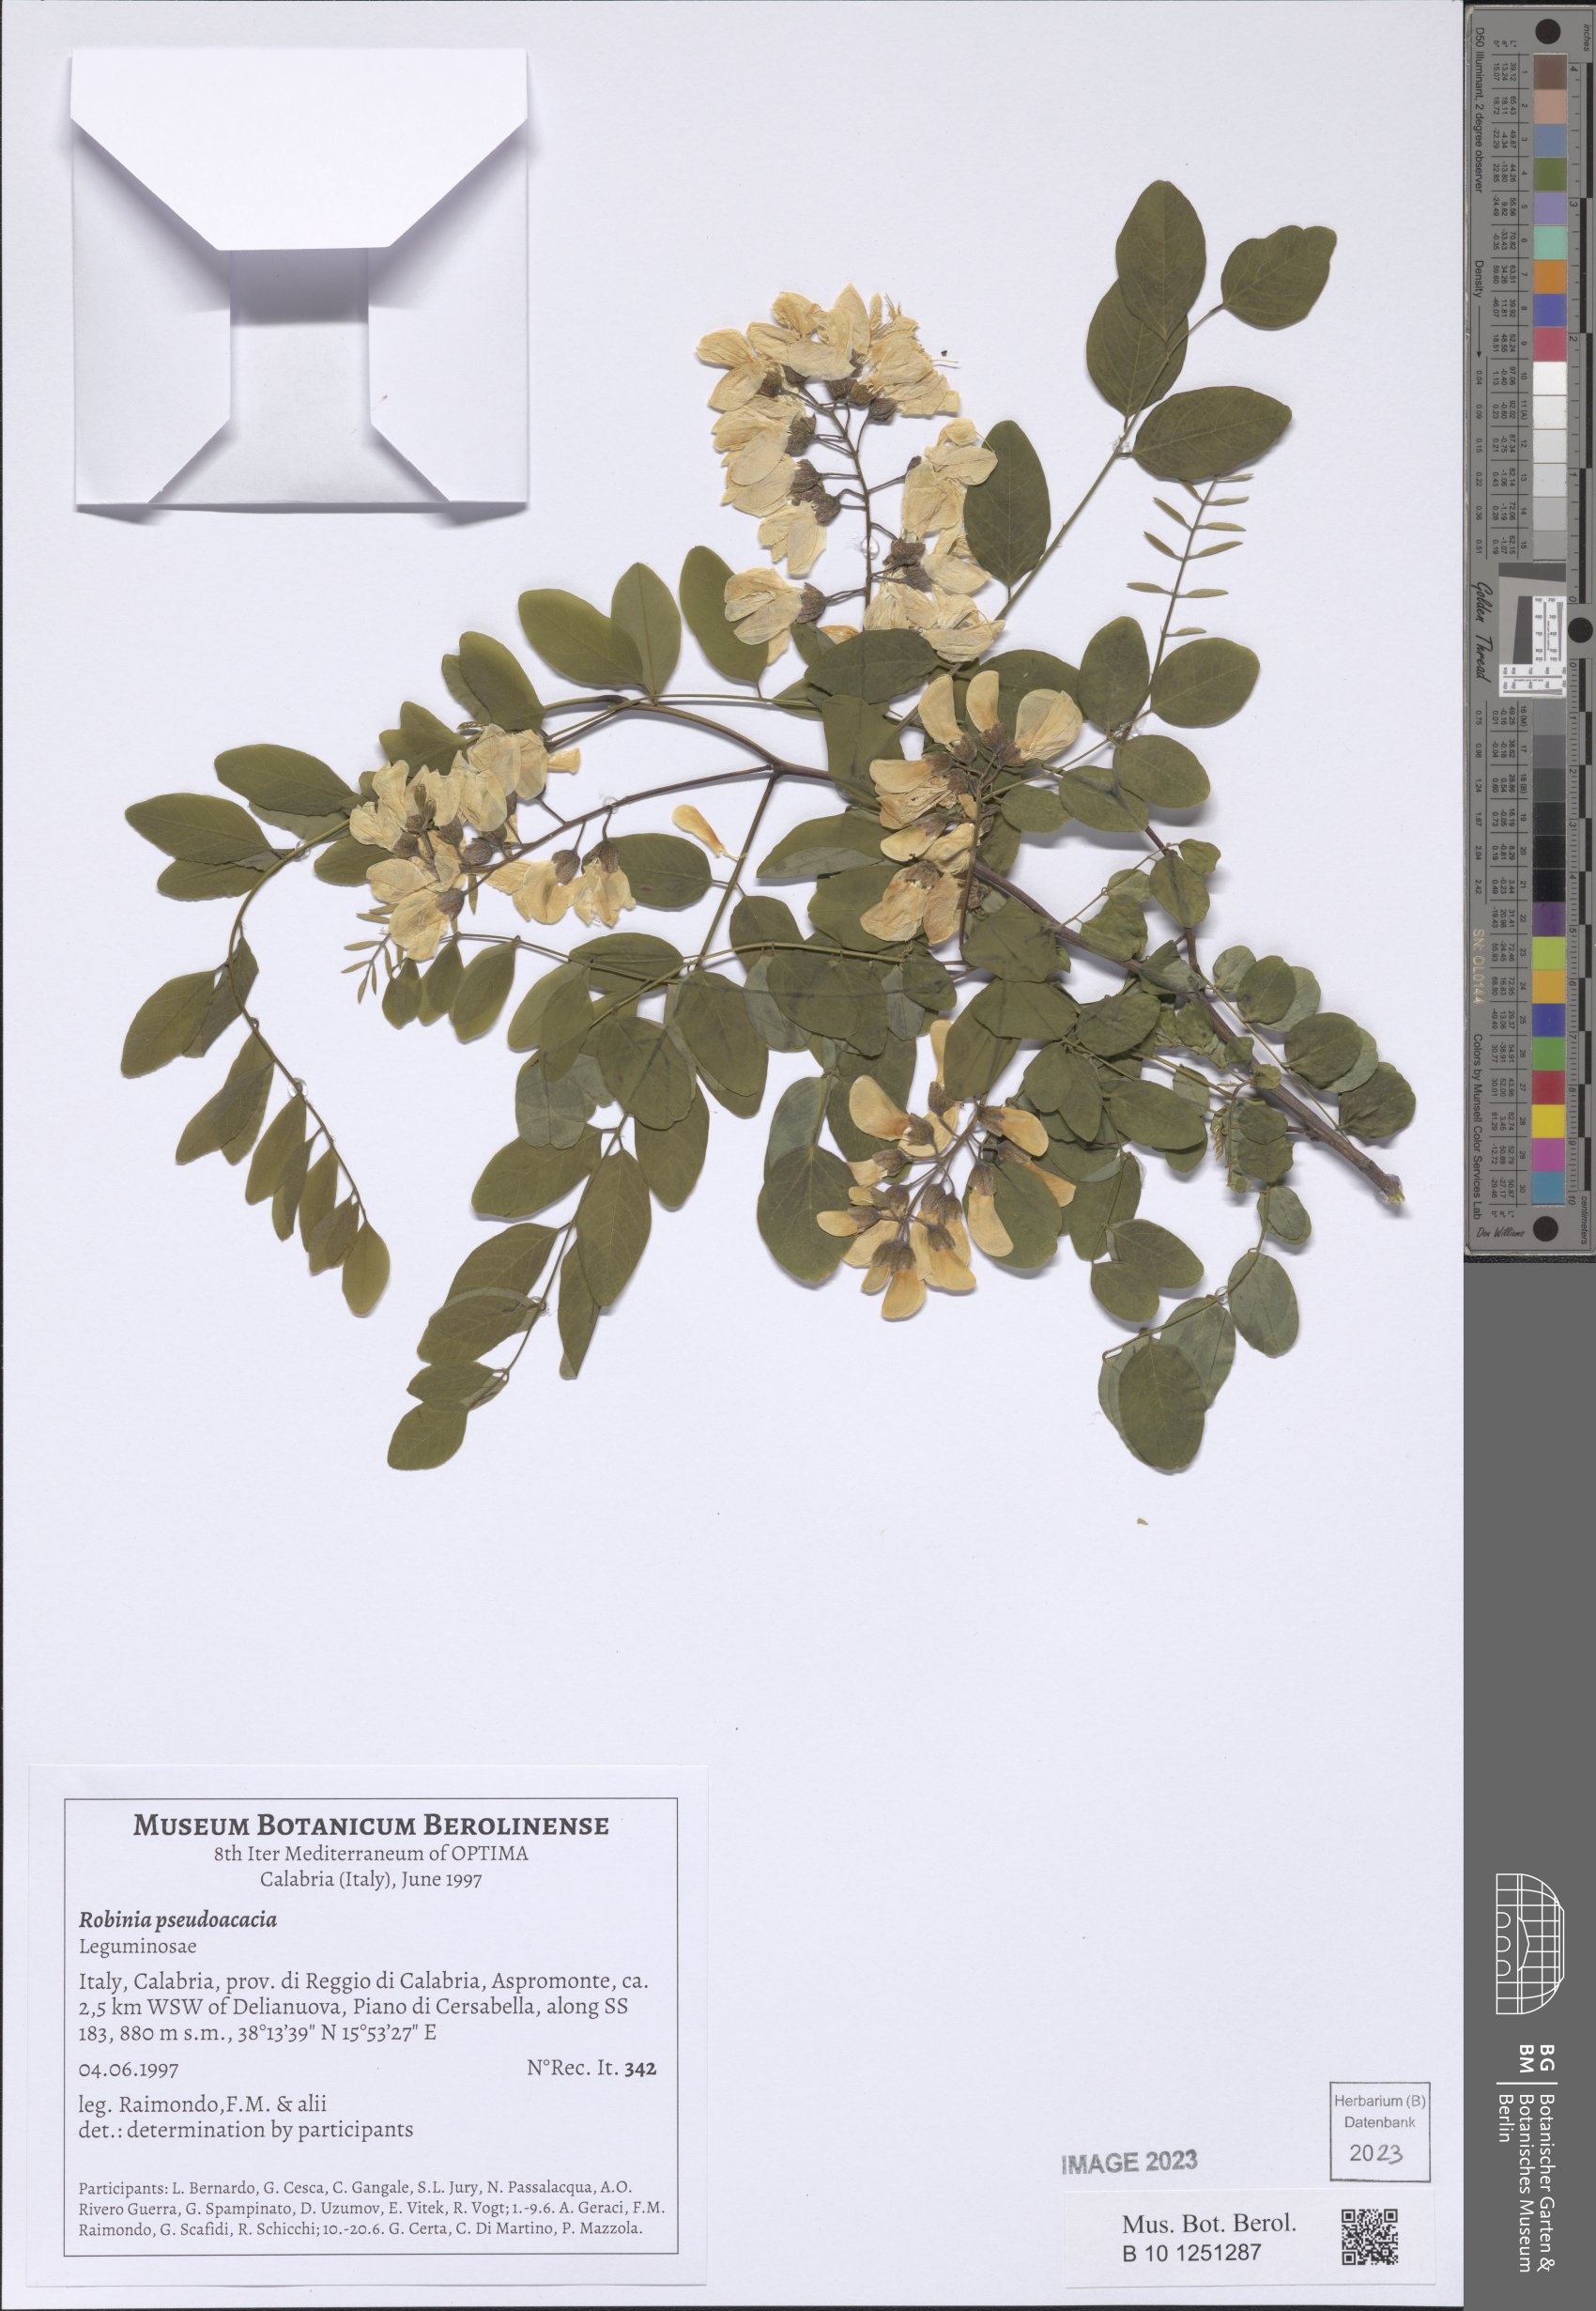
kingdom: Plantae
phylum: Tracheophyta
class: Magnoliopsida
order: Fabales
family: Fabaceae
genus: Robinia
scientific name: Robinia pseudoacacia
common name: Black locust
